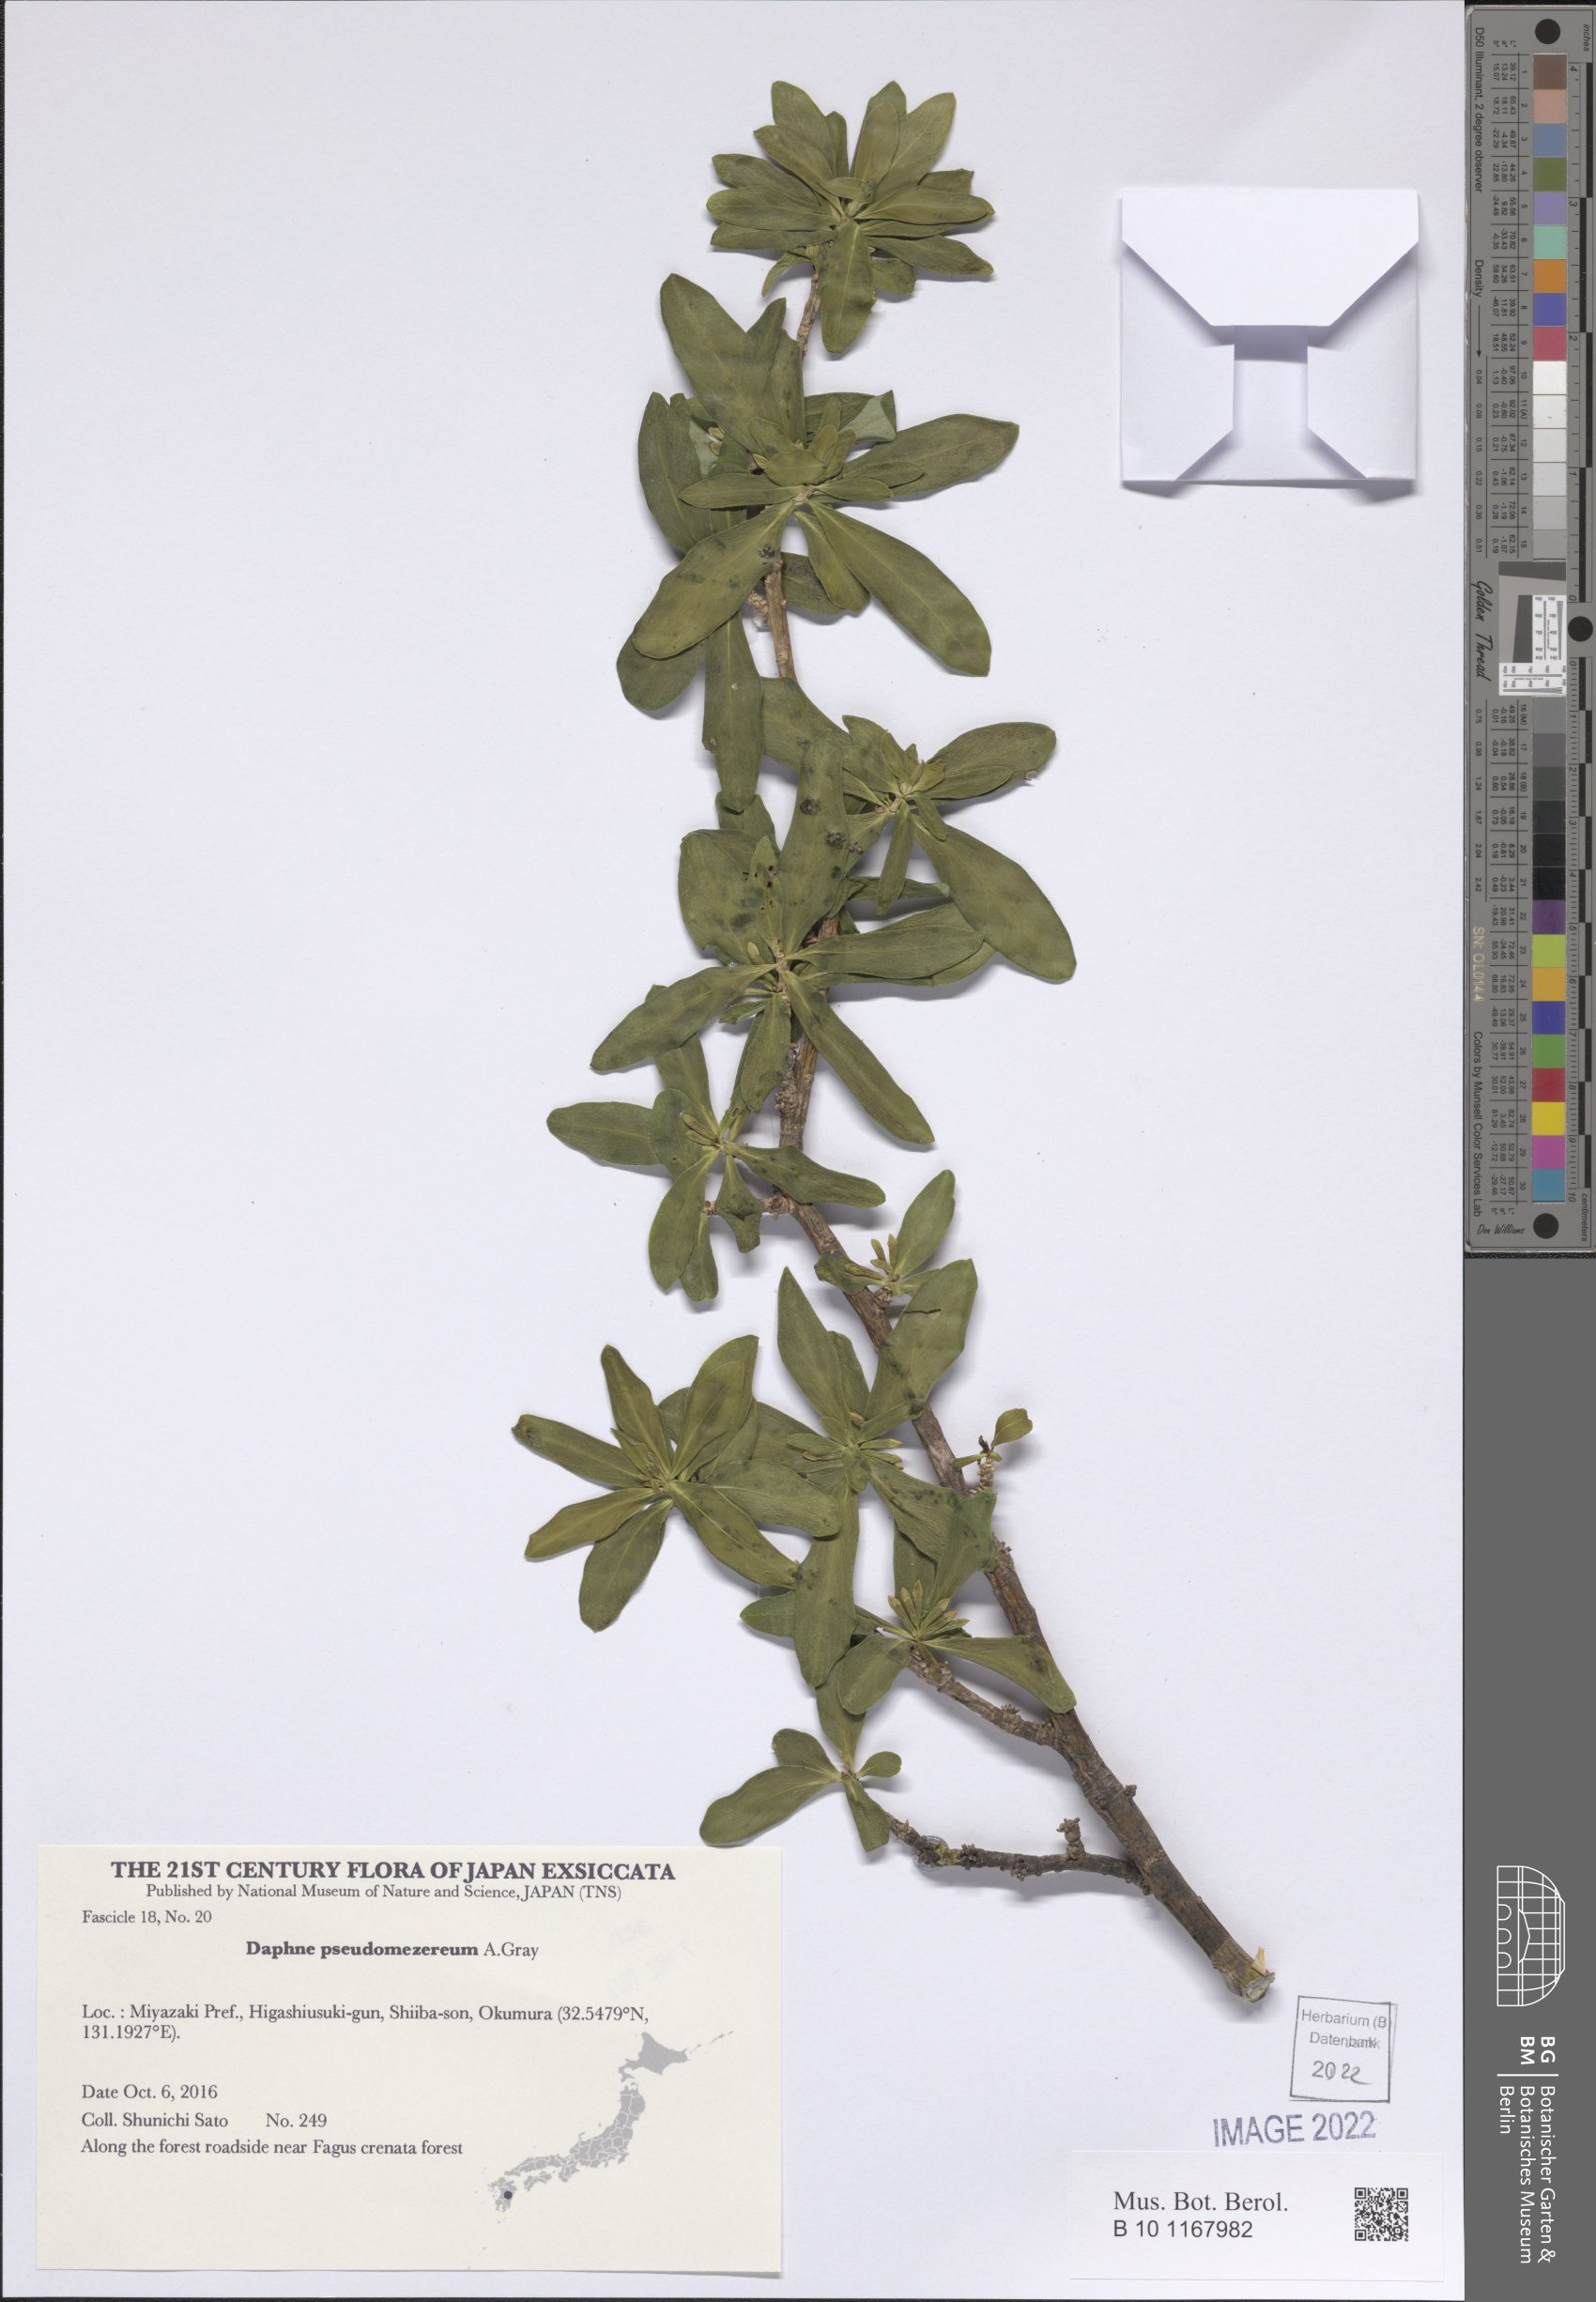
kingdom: Plantae
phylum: Tracheophyta
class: Magnoliopsida
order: Malvales
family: Thymelaeaceae
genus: Daphne
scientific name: Daphne pseudomezereum
